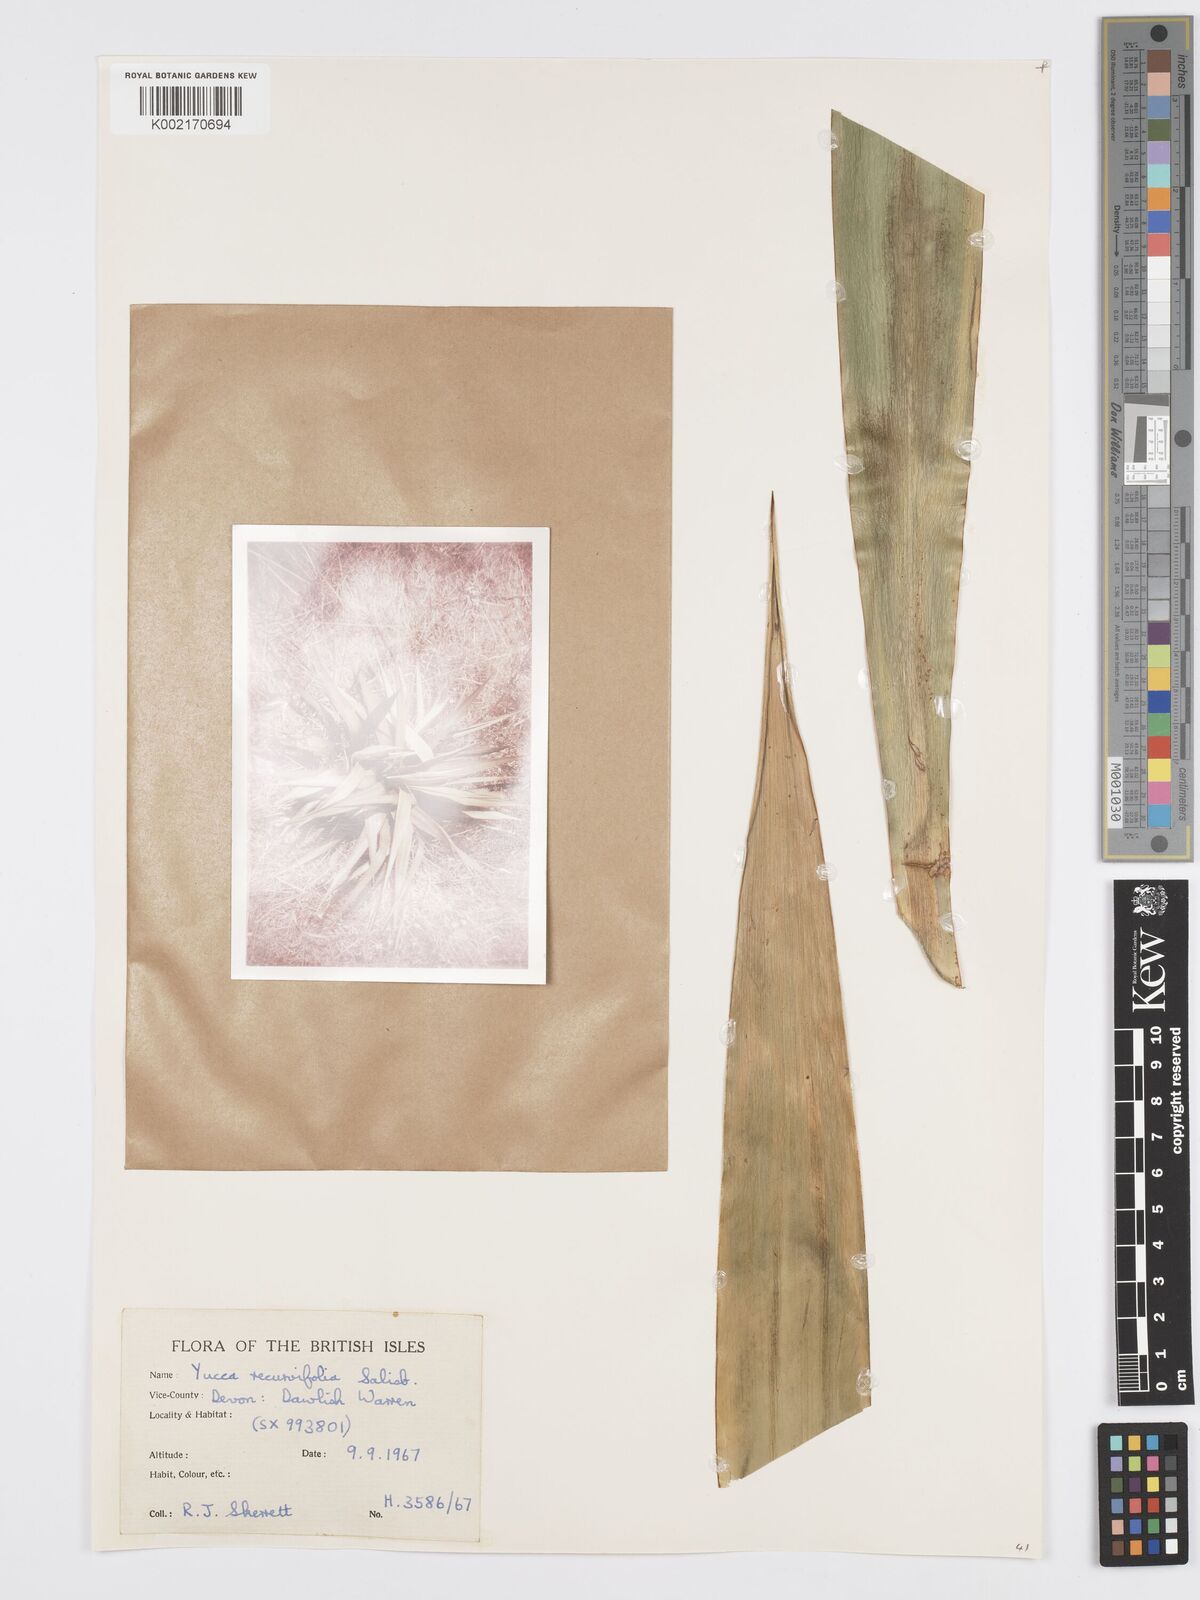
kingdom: Plantae
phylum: Tracheophyta
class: Liliopsida
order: Asparagales
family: Asparagaceae
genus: Yucca
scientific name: Yucca gloriosa
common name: Spanish-dagger
